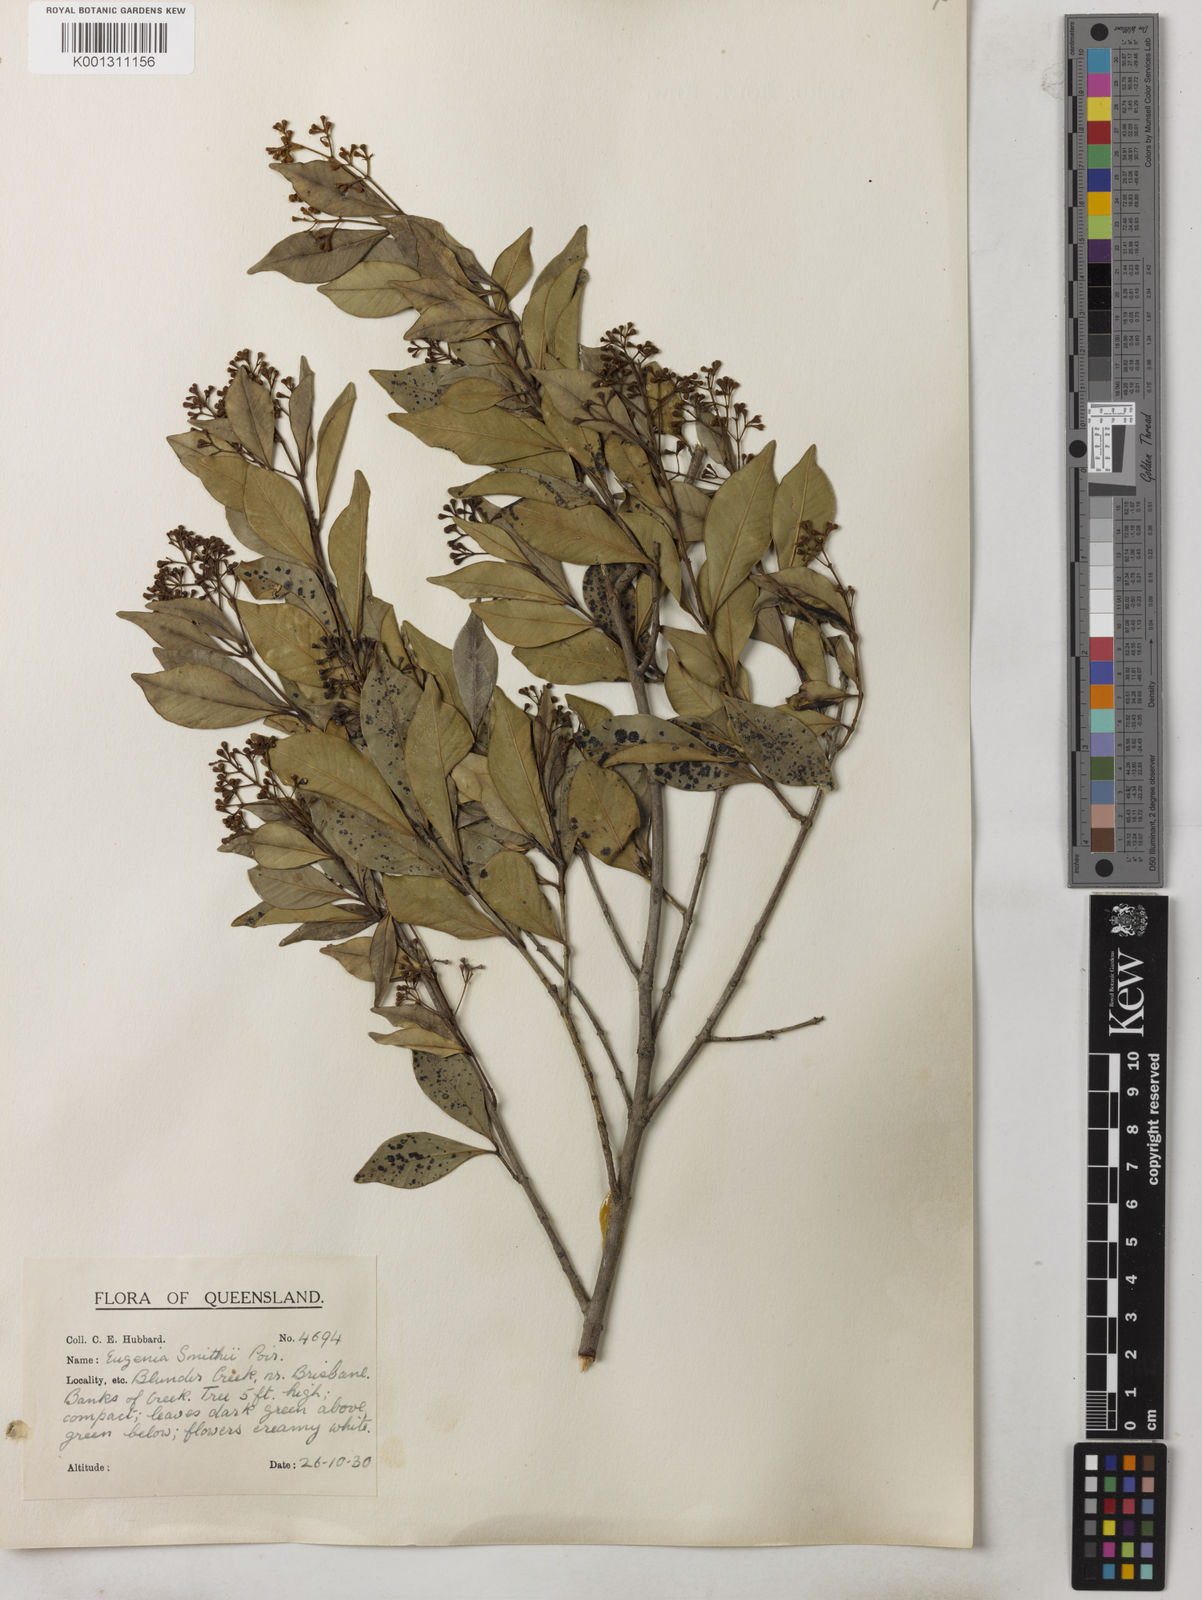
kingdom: Plantae
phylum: Tracheophyta
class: Magnoliopsida
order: Myrtales
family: Myrtaceae
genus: Syzygium
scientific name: Syzygium smithii
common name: Lilly-pilly
